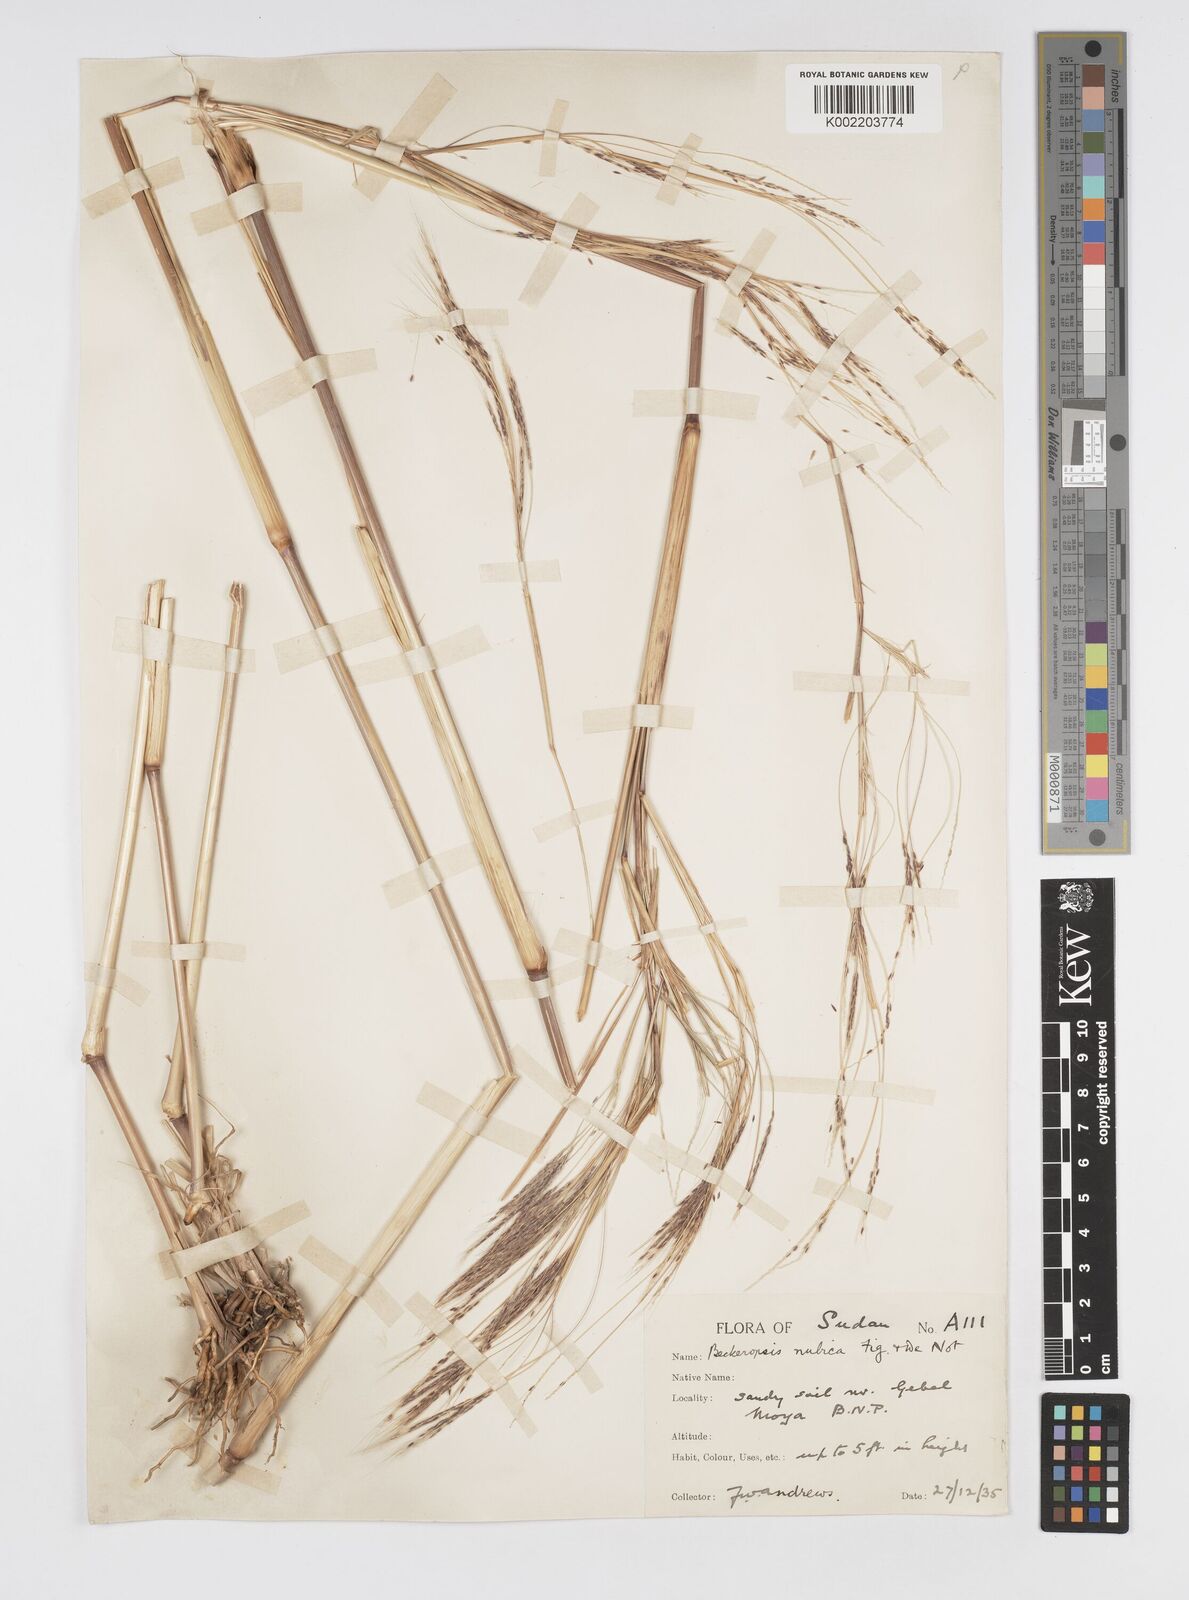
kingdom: Plantae
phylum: Tracheophyta
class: Liliopsida
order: Poales
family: Poaceae
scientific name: Poaceae
